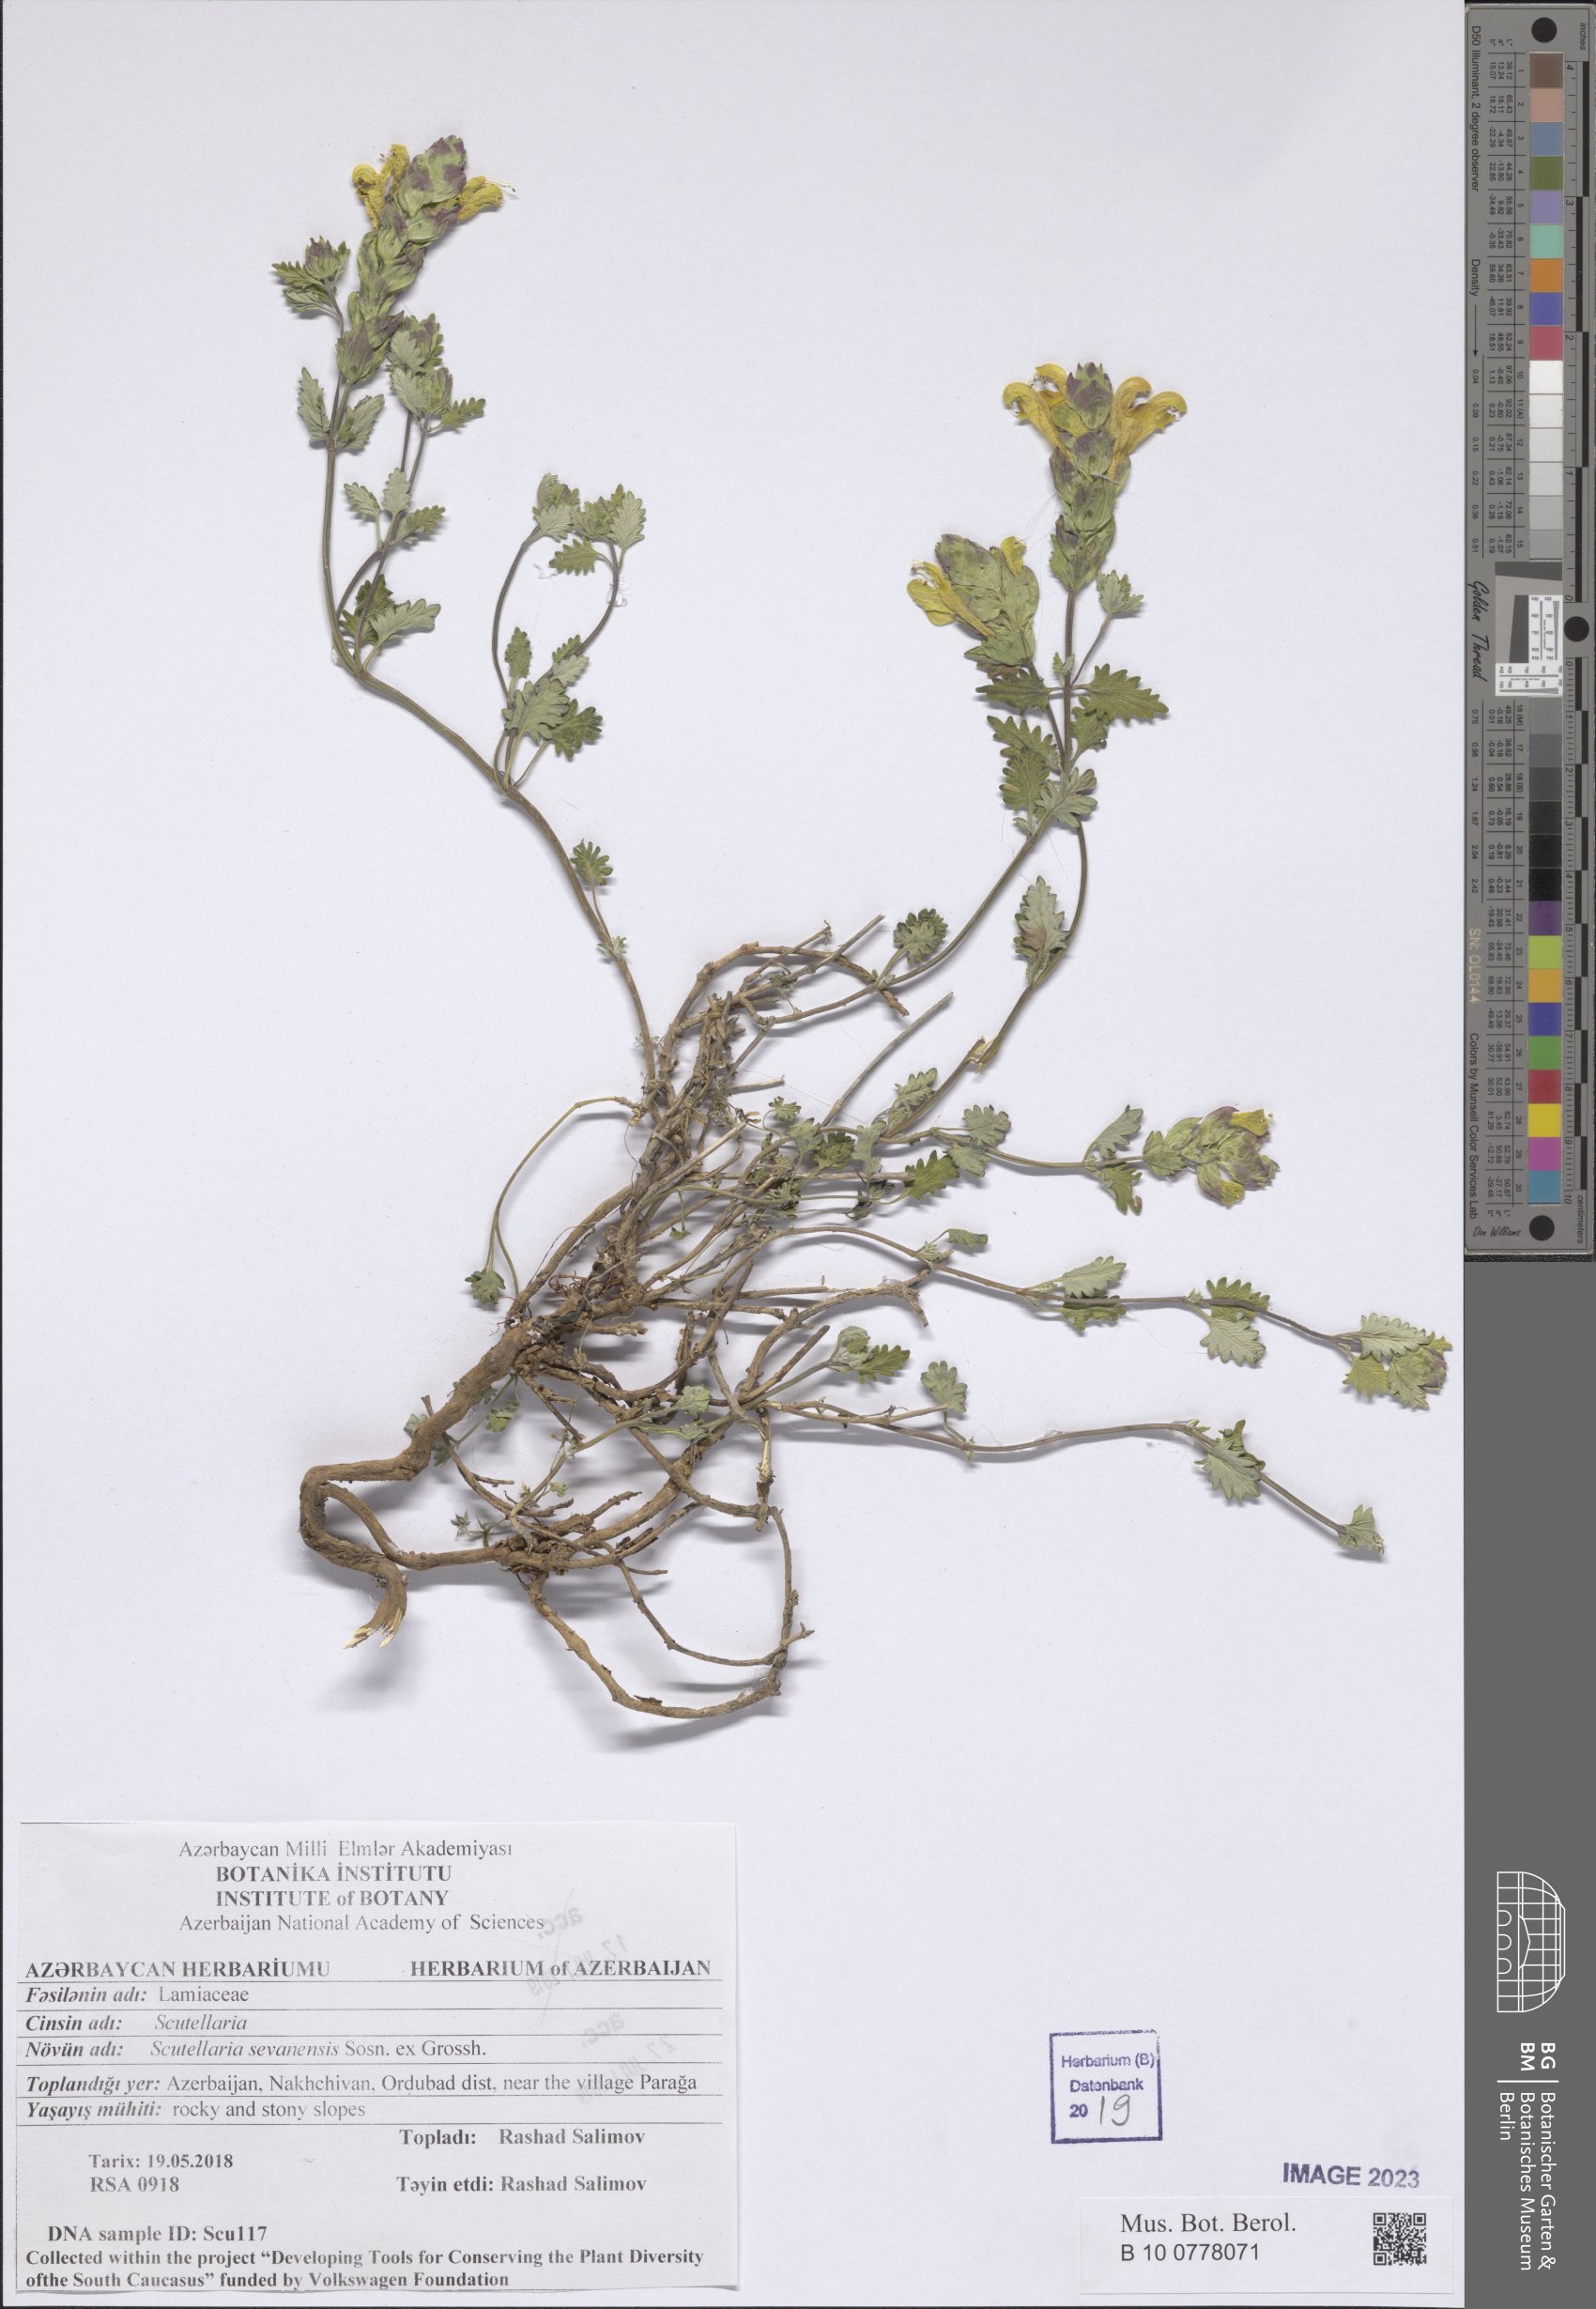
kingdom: Plantae
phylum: Tracheophyta
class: Magnoliopsida
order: Lamiales
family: Lamiaceae
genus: Scutellaria
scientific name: Scutellaria sevanensis
